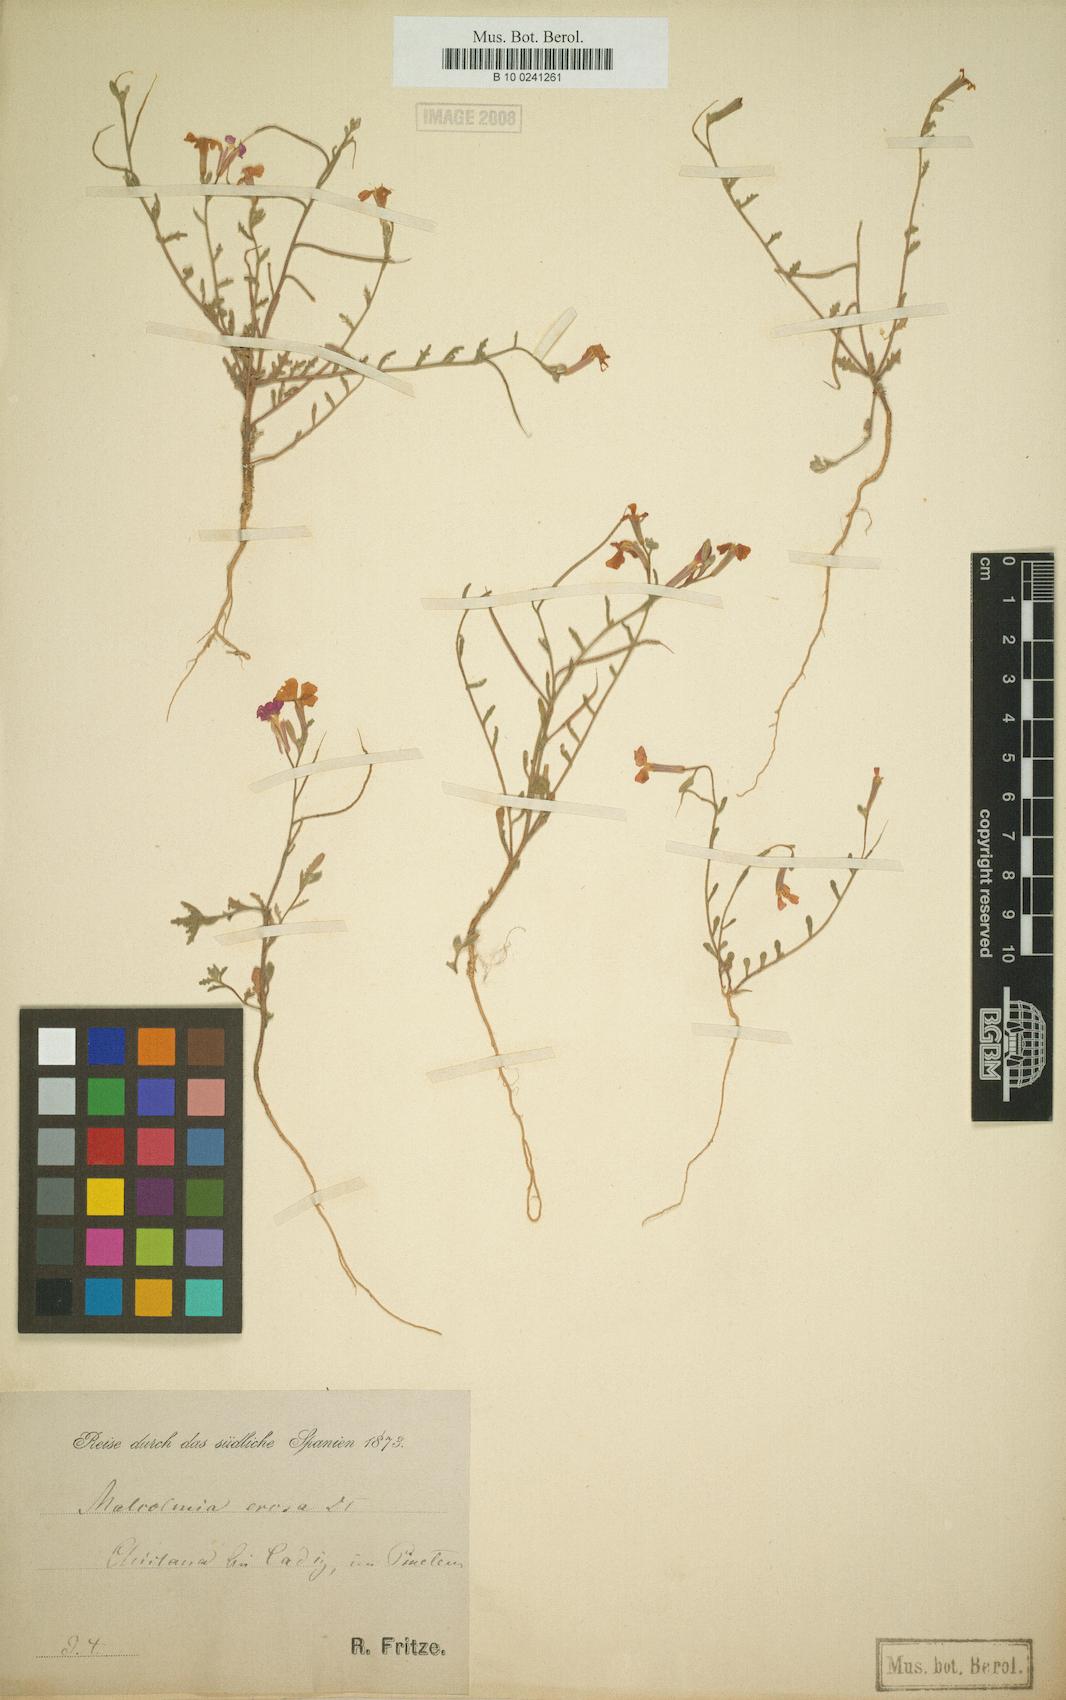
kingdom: Plantae
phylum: Tracheophyta
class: Magnoliopsida
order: Brassicales
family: Brassicaceae
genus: Marcuskochia
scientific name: Marcuskochia triloba
